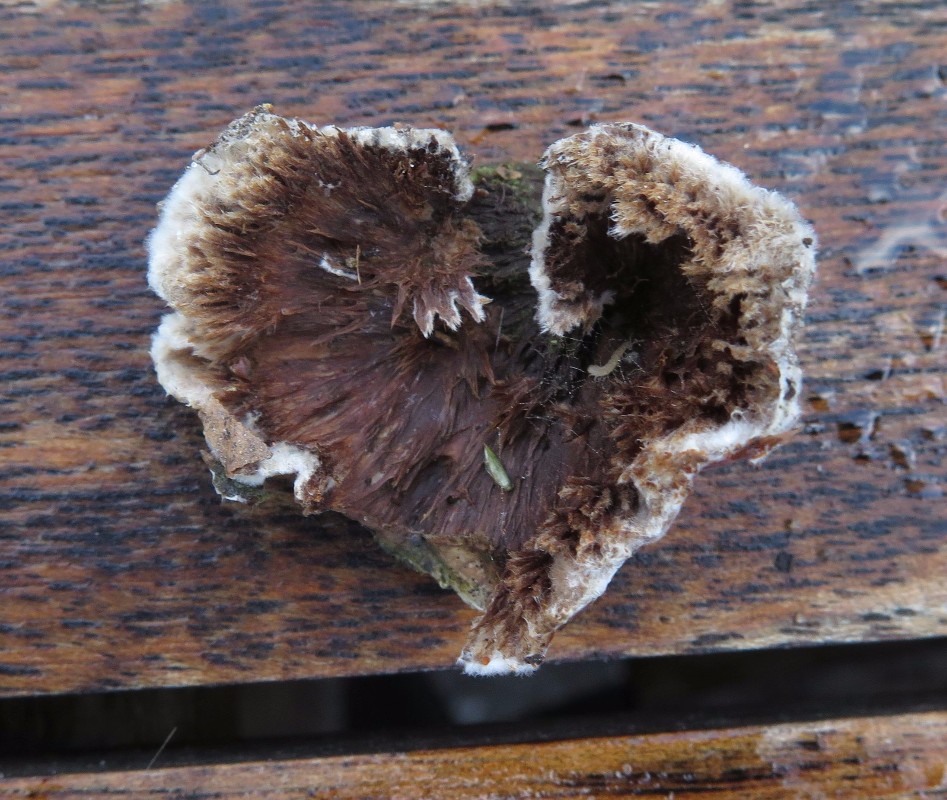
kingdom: Fungi
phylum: Basidiomycota
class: Agaricomycetes
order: Thelephorales
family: Thelephoraceae
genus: Thelephora
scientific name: Thelephora terrestris
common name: fliget frynsesvamp
